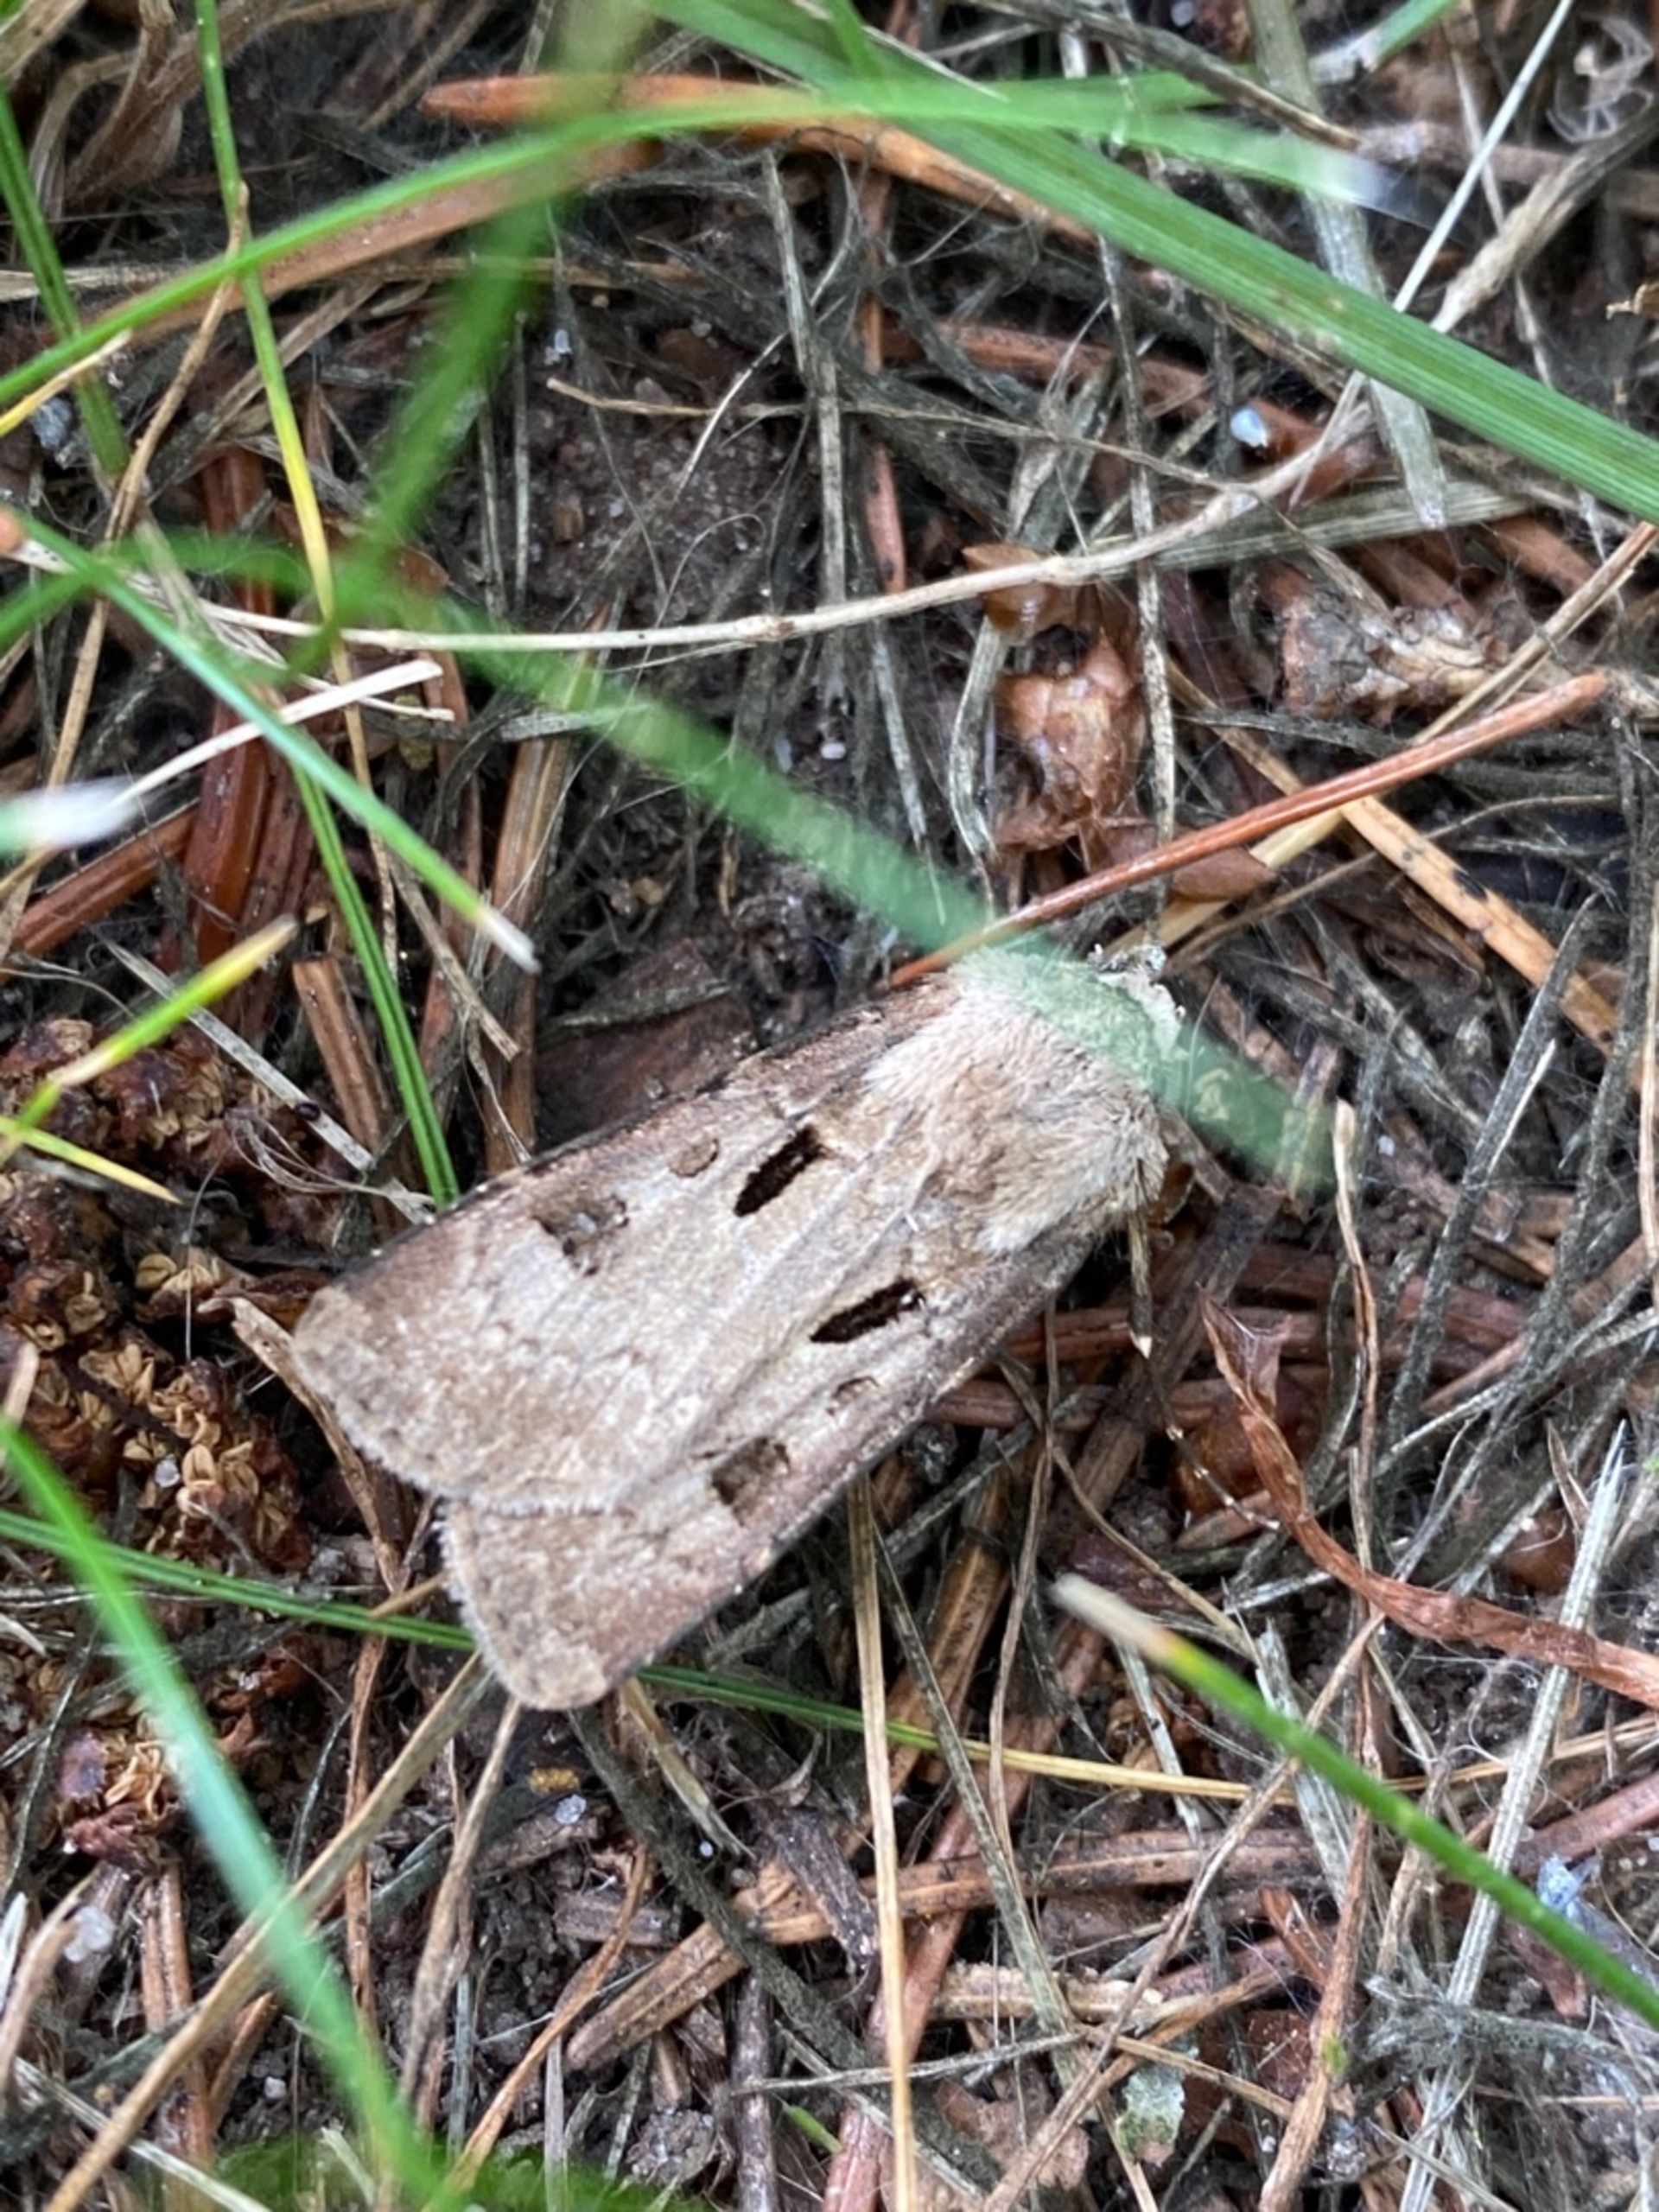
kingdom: Animalia
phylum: Arthropoda
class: Insecta
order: Lepidoptera
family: Noctuidae
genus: Agrotis
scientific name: Agrotis exclamationis
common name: Udråbstegnsugle
